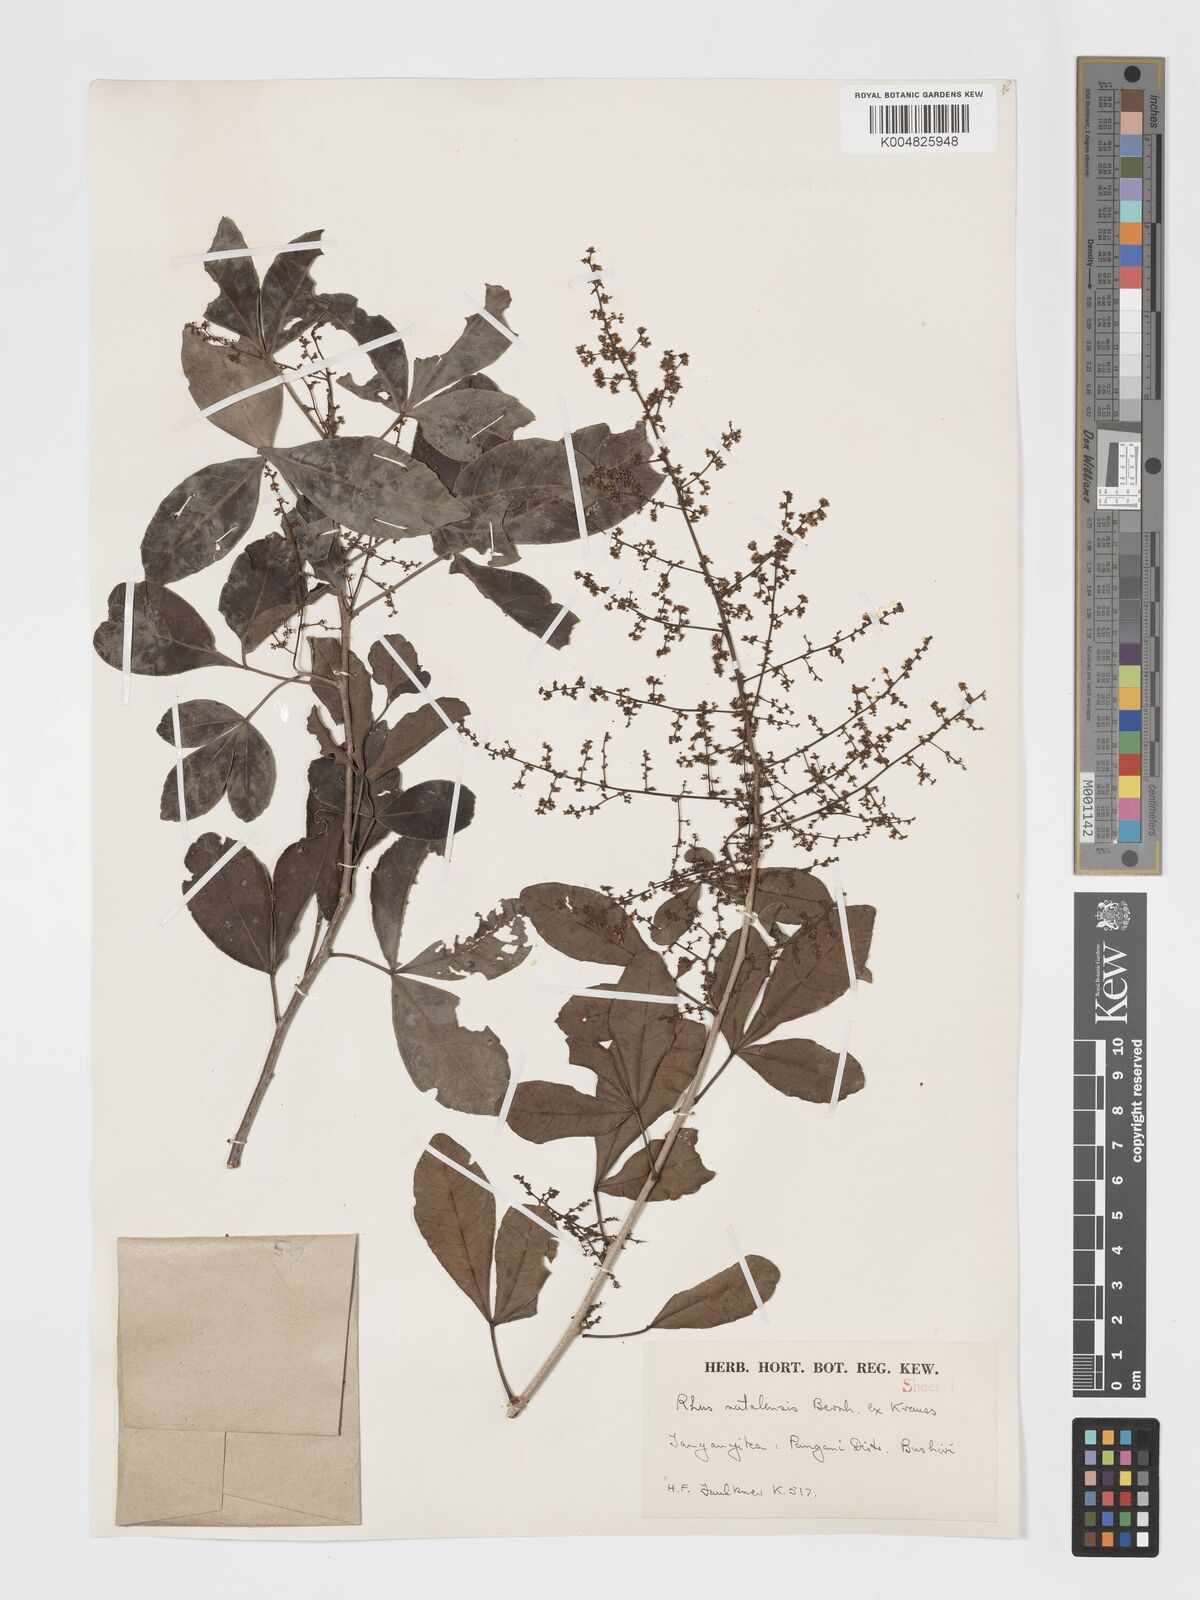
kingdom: Plantae
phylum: Tracheophyta
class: Magnoliopsida
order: Sapindales
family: Anacardiaceae
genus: Searsia
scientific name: Searsia natalensis
